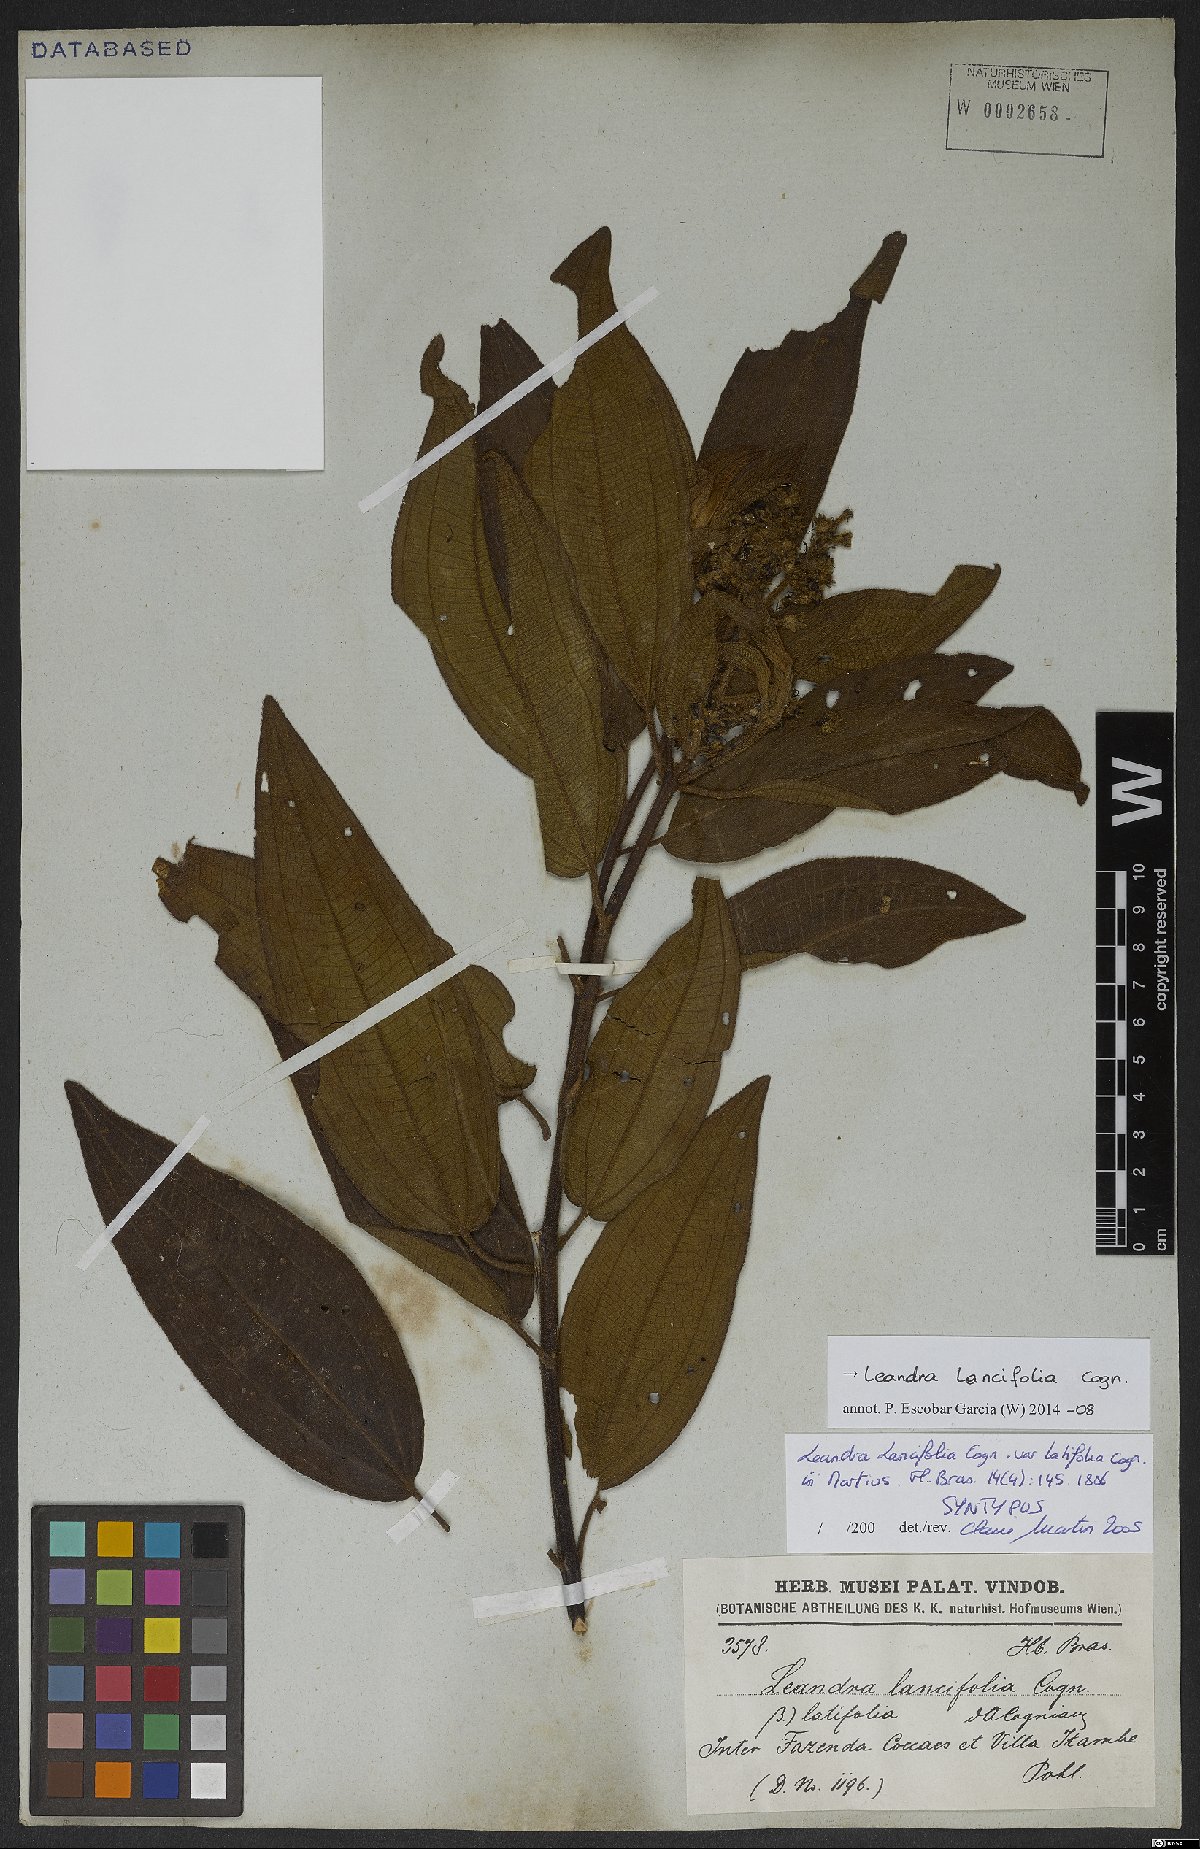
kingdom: Plantae
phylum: Tracheophyta
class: Magnoliopsida
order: Myrtales
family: Melastomataceae
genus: Miconia
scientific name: Miconia lealancifolia
